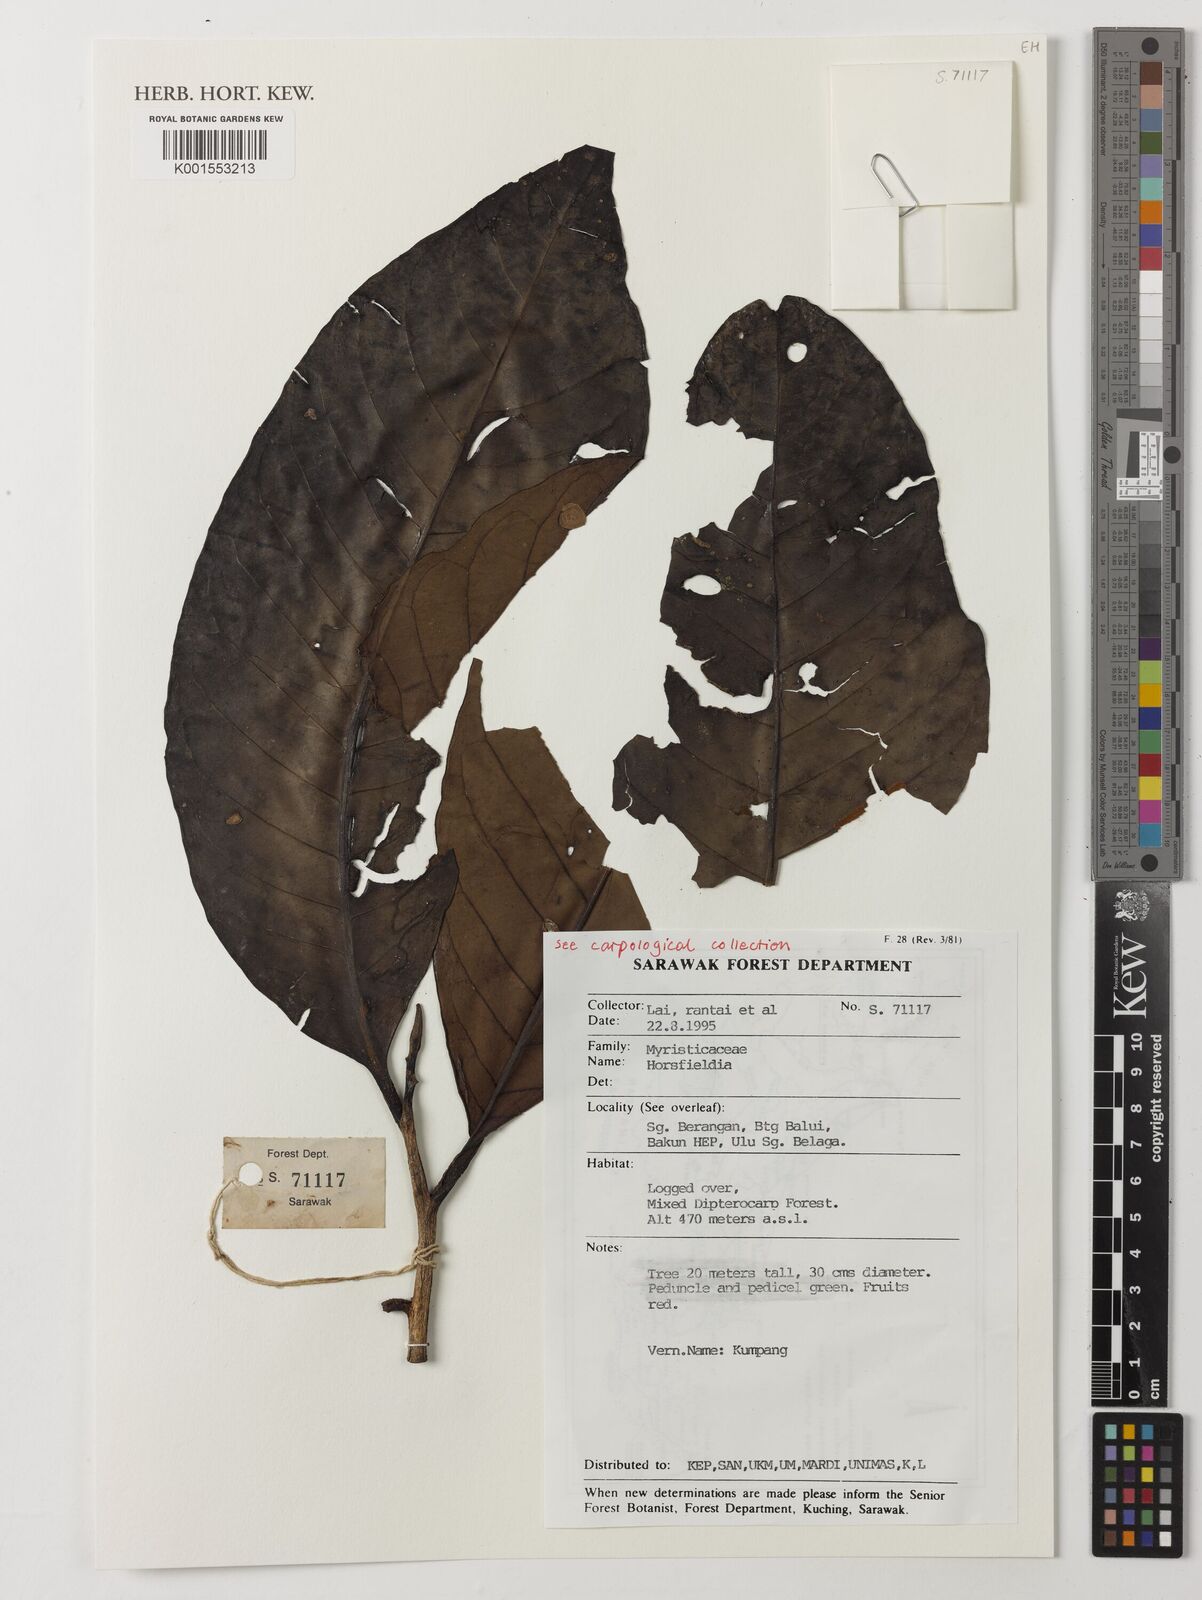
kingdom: Plantae
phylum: Tracheophyta
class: Magnoliopsida
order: Magnoliales
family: Myristicaceae
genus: Horsfieldia
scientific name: Horsfieldia
